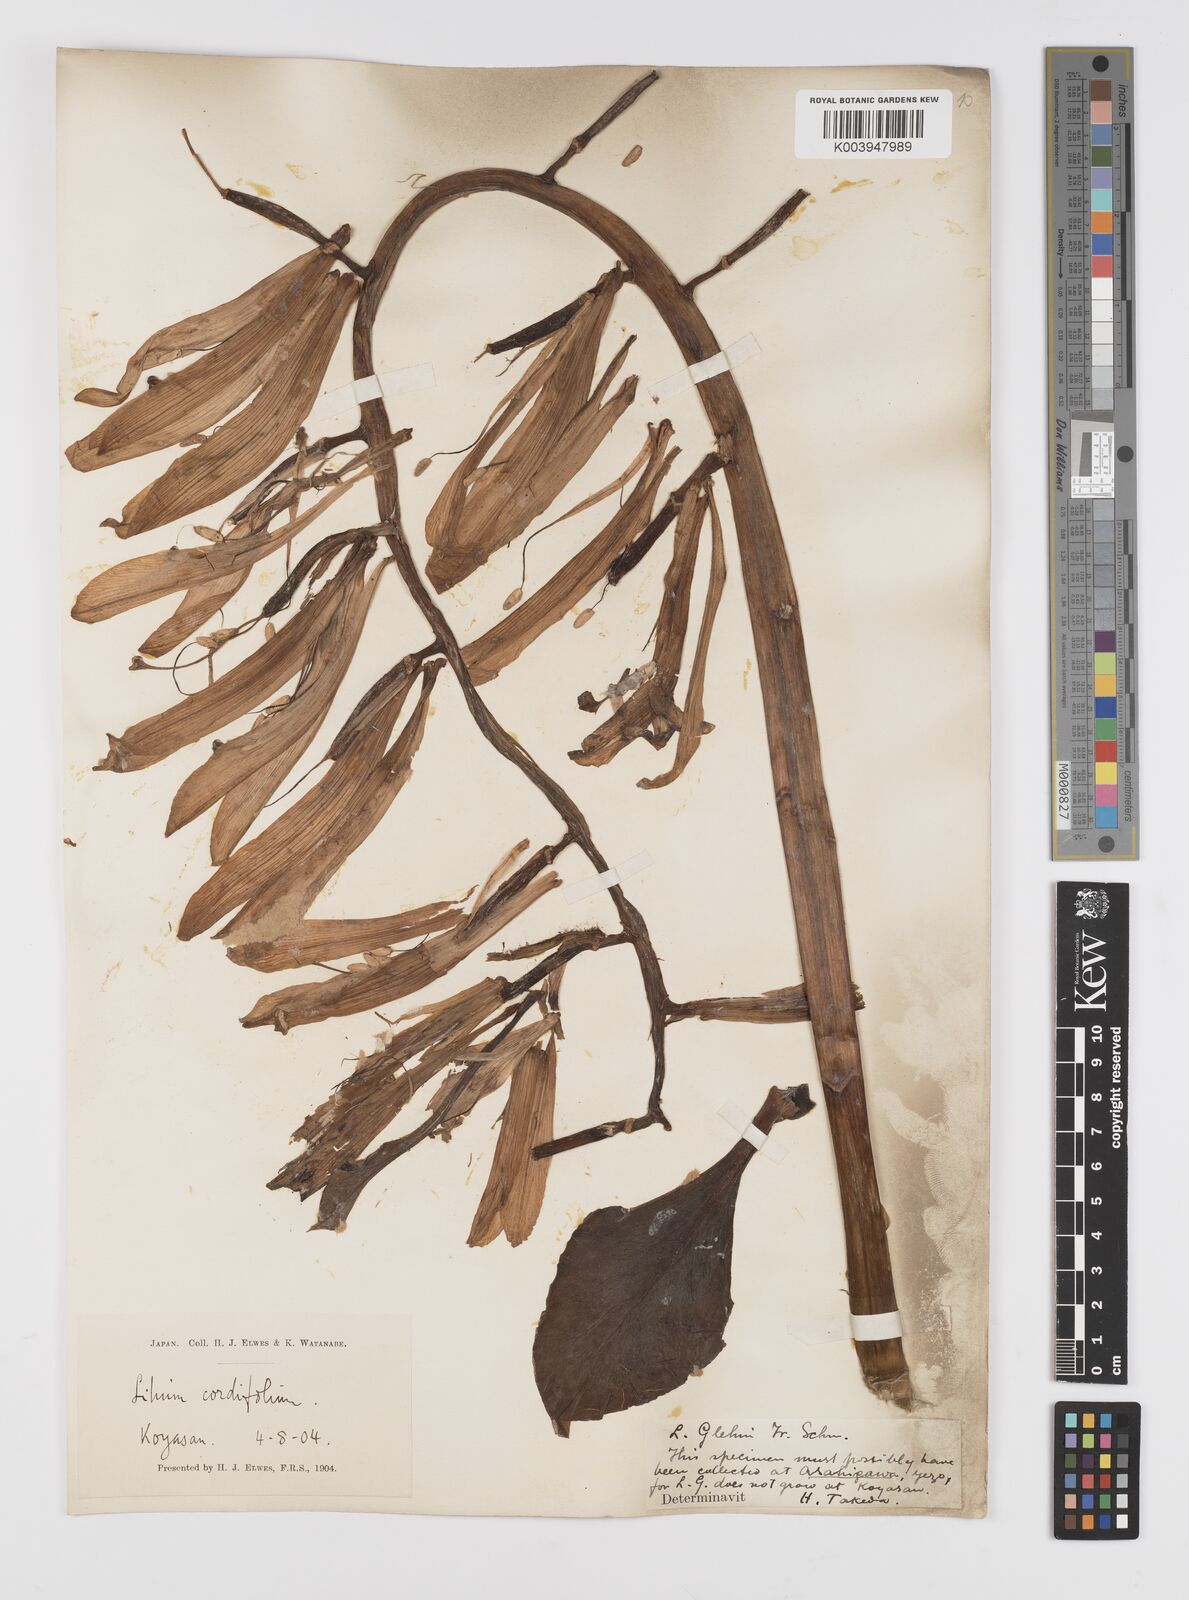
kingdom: Plantae
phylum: Tracheophyta
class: Liliopsida
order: Liliales
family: Liliaceae
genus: Cardiocrinum
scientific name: Cardiocrinum
